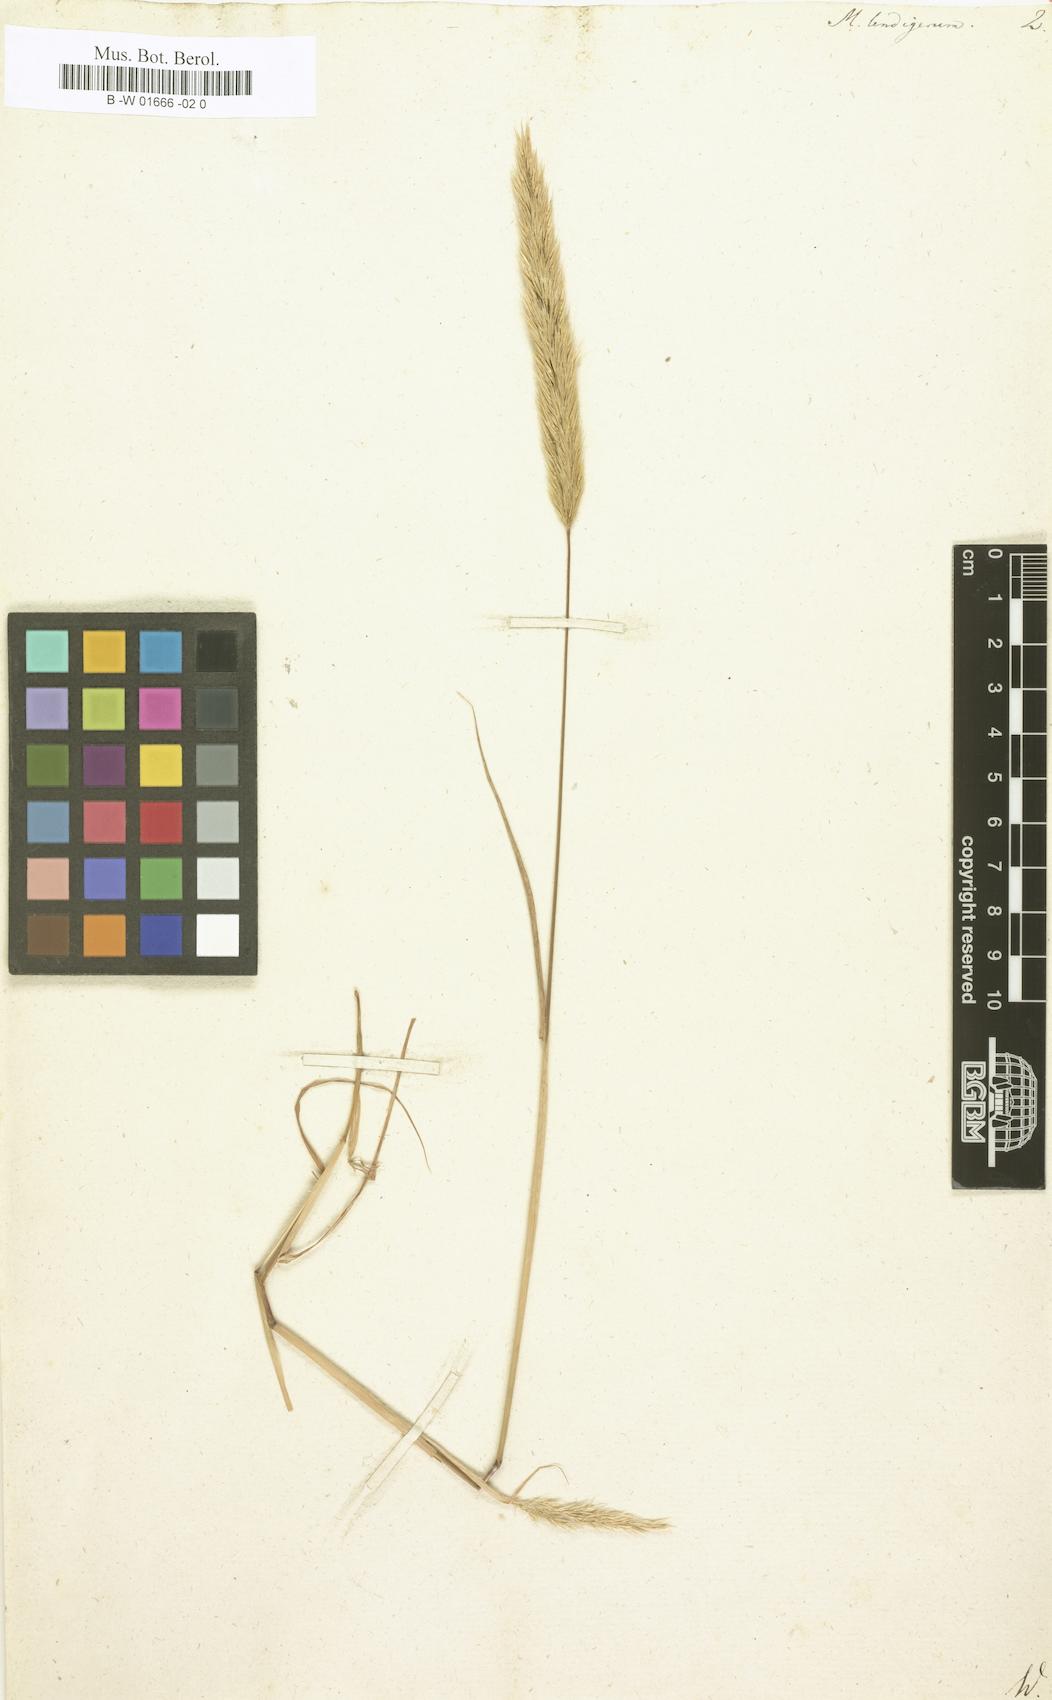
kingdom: Plantae
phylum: Tracheophyta
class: Liliopsida
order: Poales
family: Poaceae
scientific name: Poaceae
